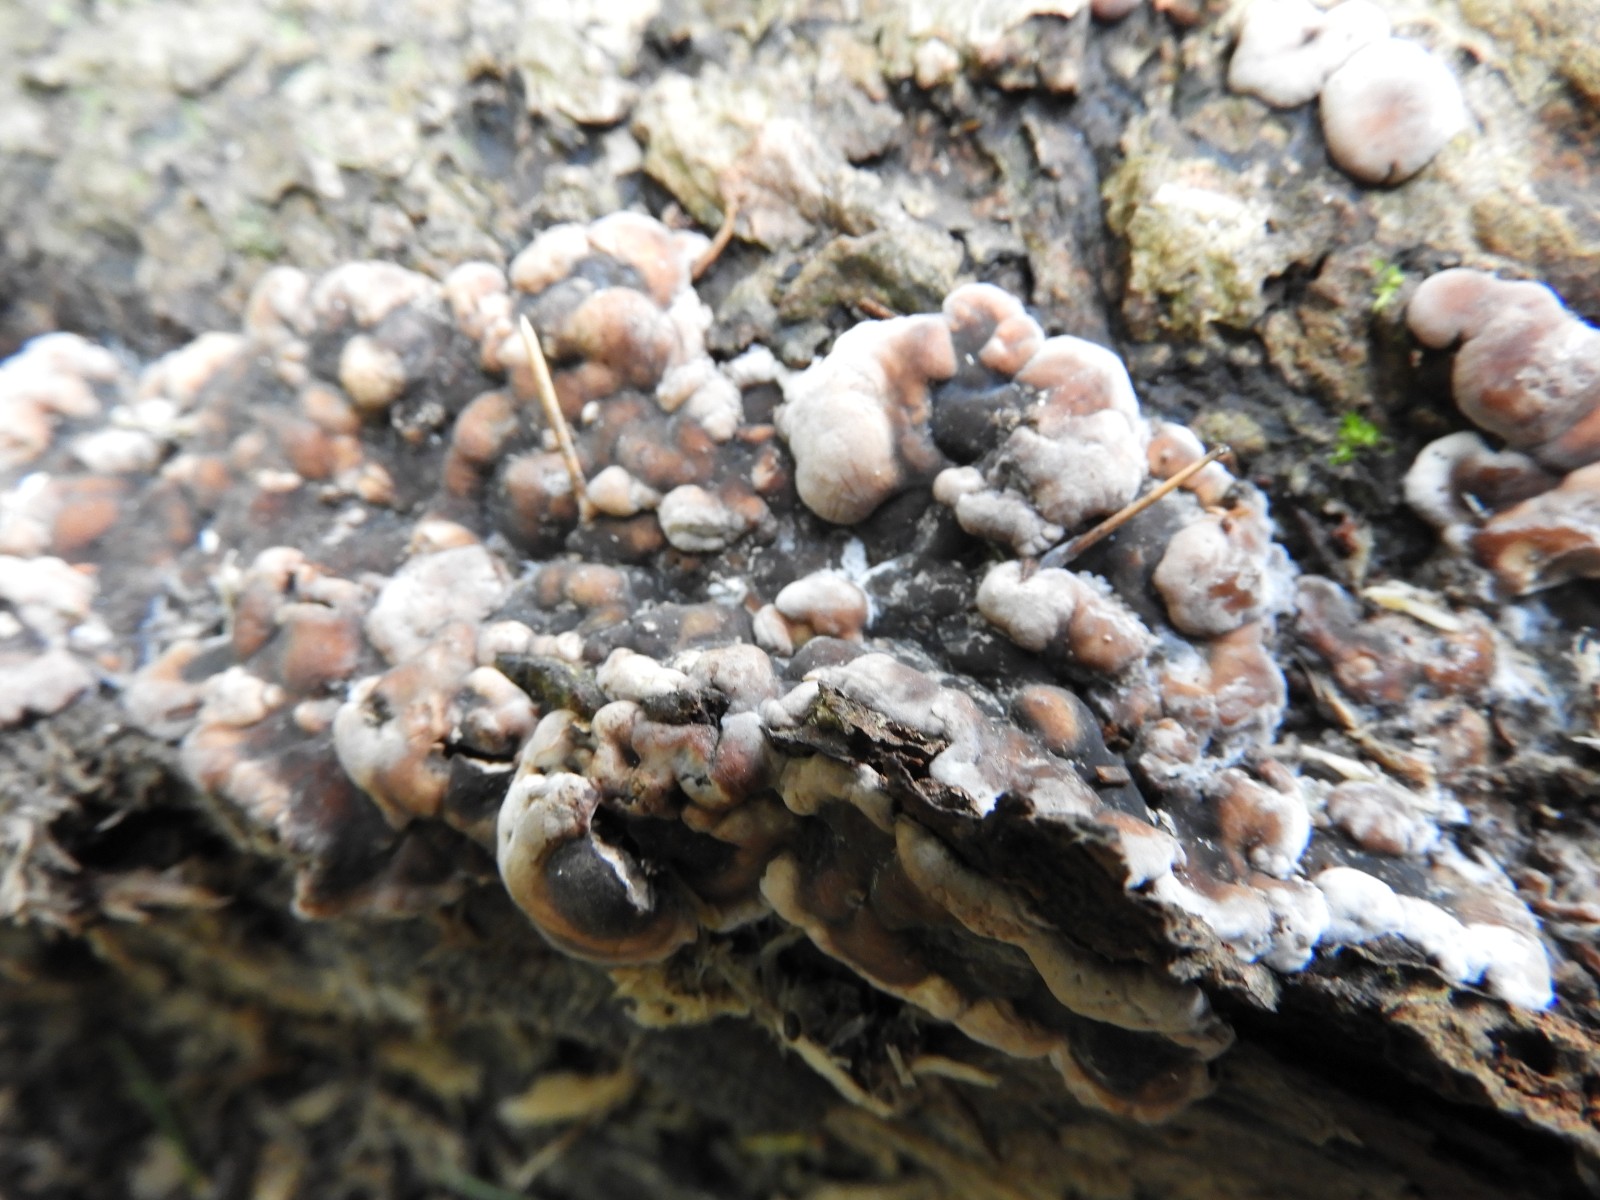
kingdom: Fungi
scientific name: Fungi
